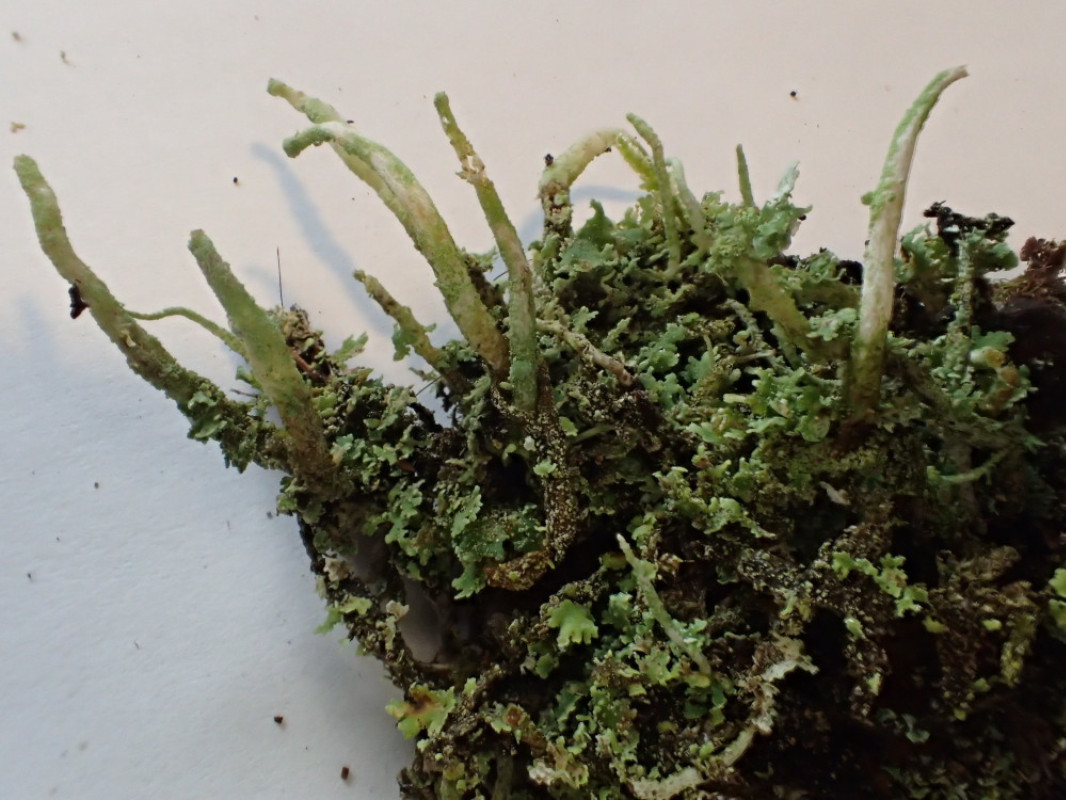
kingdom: Fungi
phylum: Ascomycota
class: Lecanoromycetes
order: Lecanorales
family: Cladoniaceae
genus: Cladonia
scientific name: Cladonia ochrochlora
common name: stød-bægerlav
